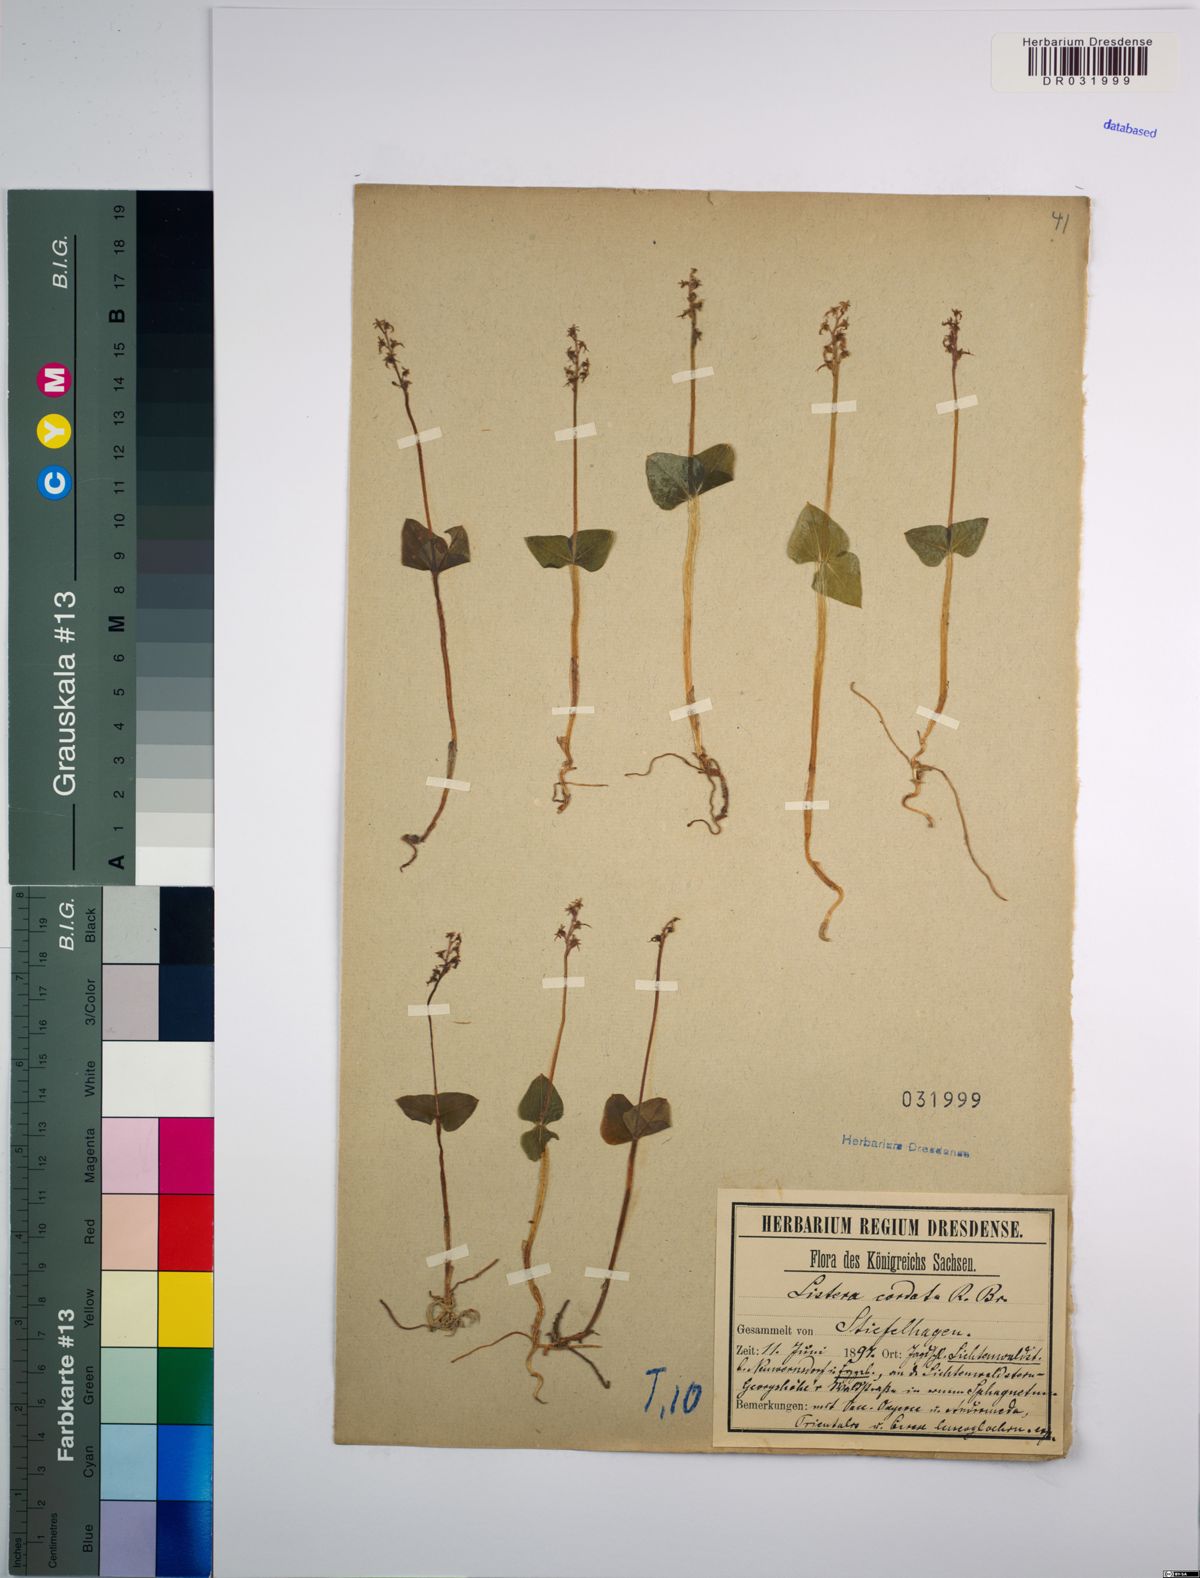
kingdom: Plantae
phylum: Tracheophyta
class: Liliopsida
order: Asparagales
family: Orchidaceae
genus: Neottia
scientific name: Neottia cordata
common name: Lesser twayblade
